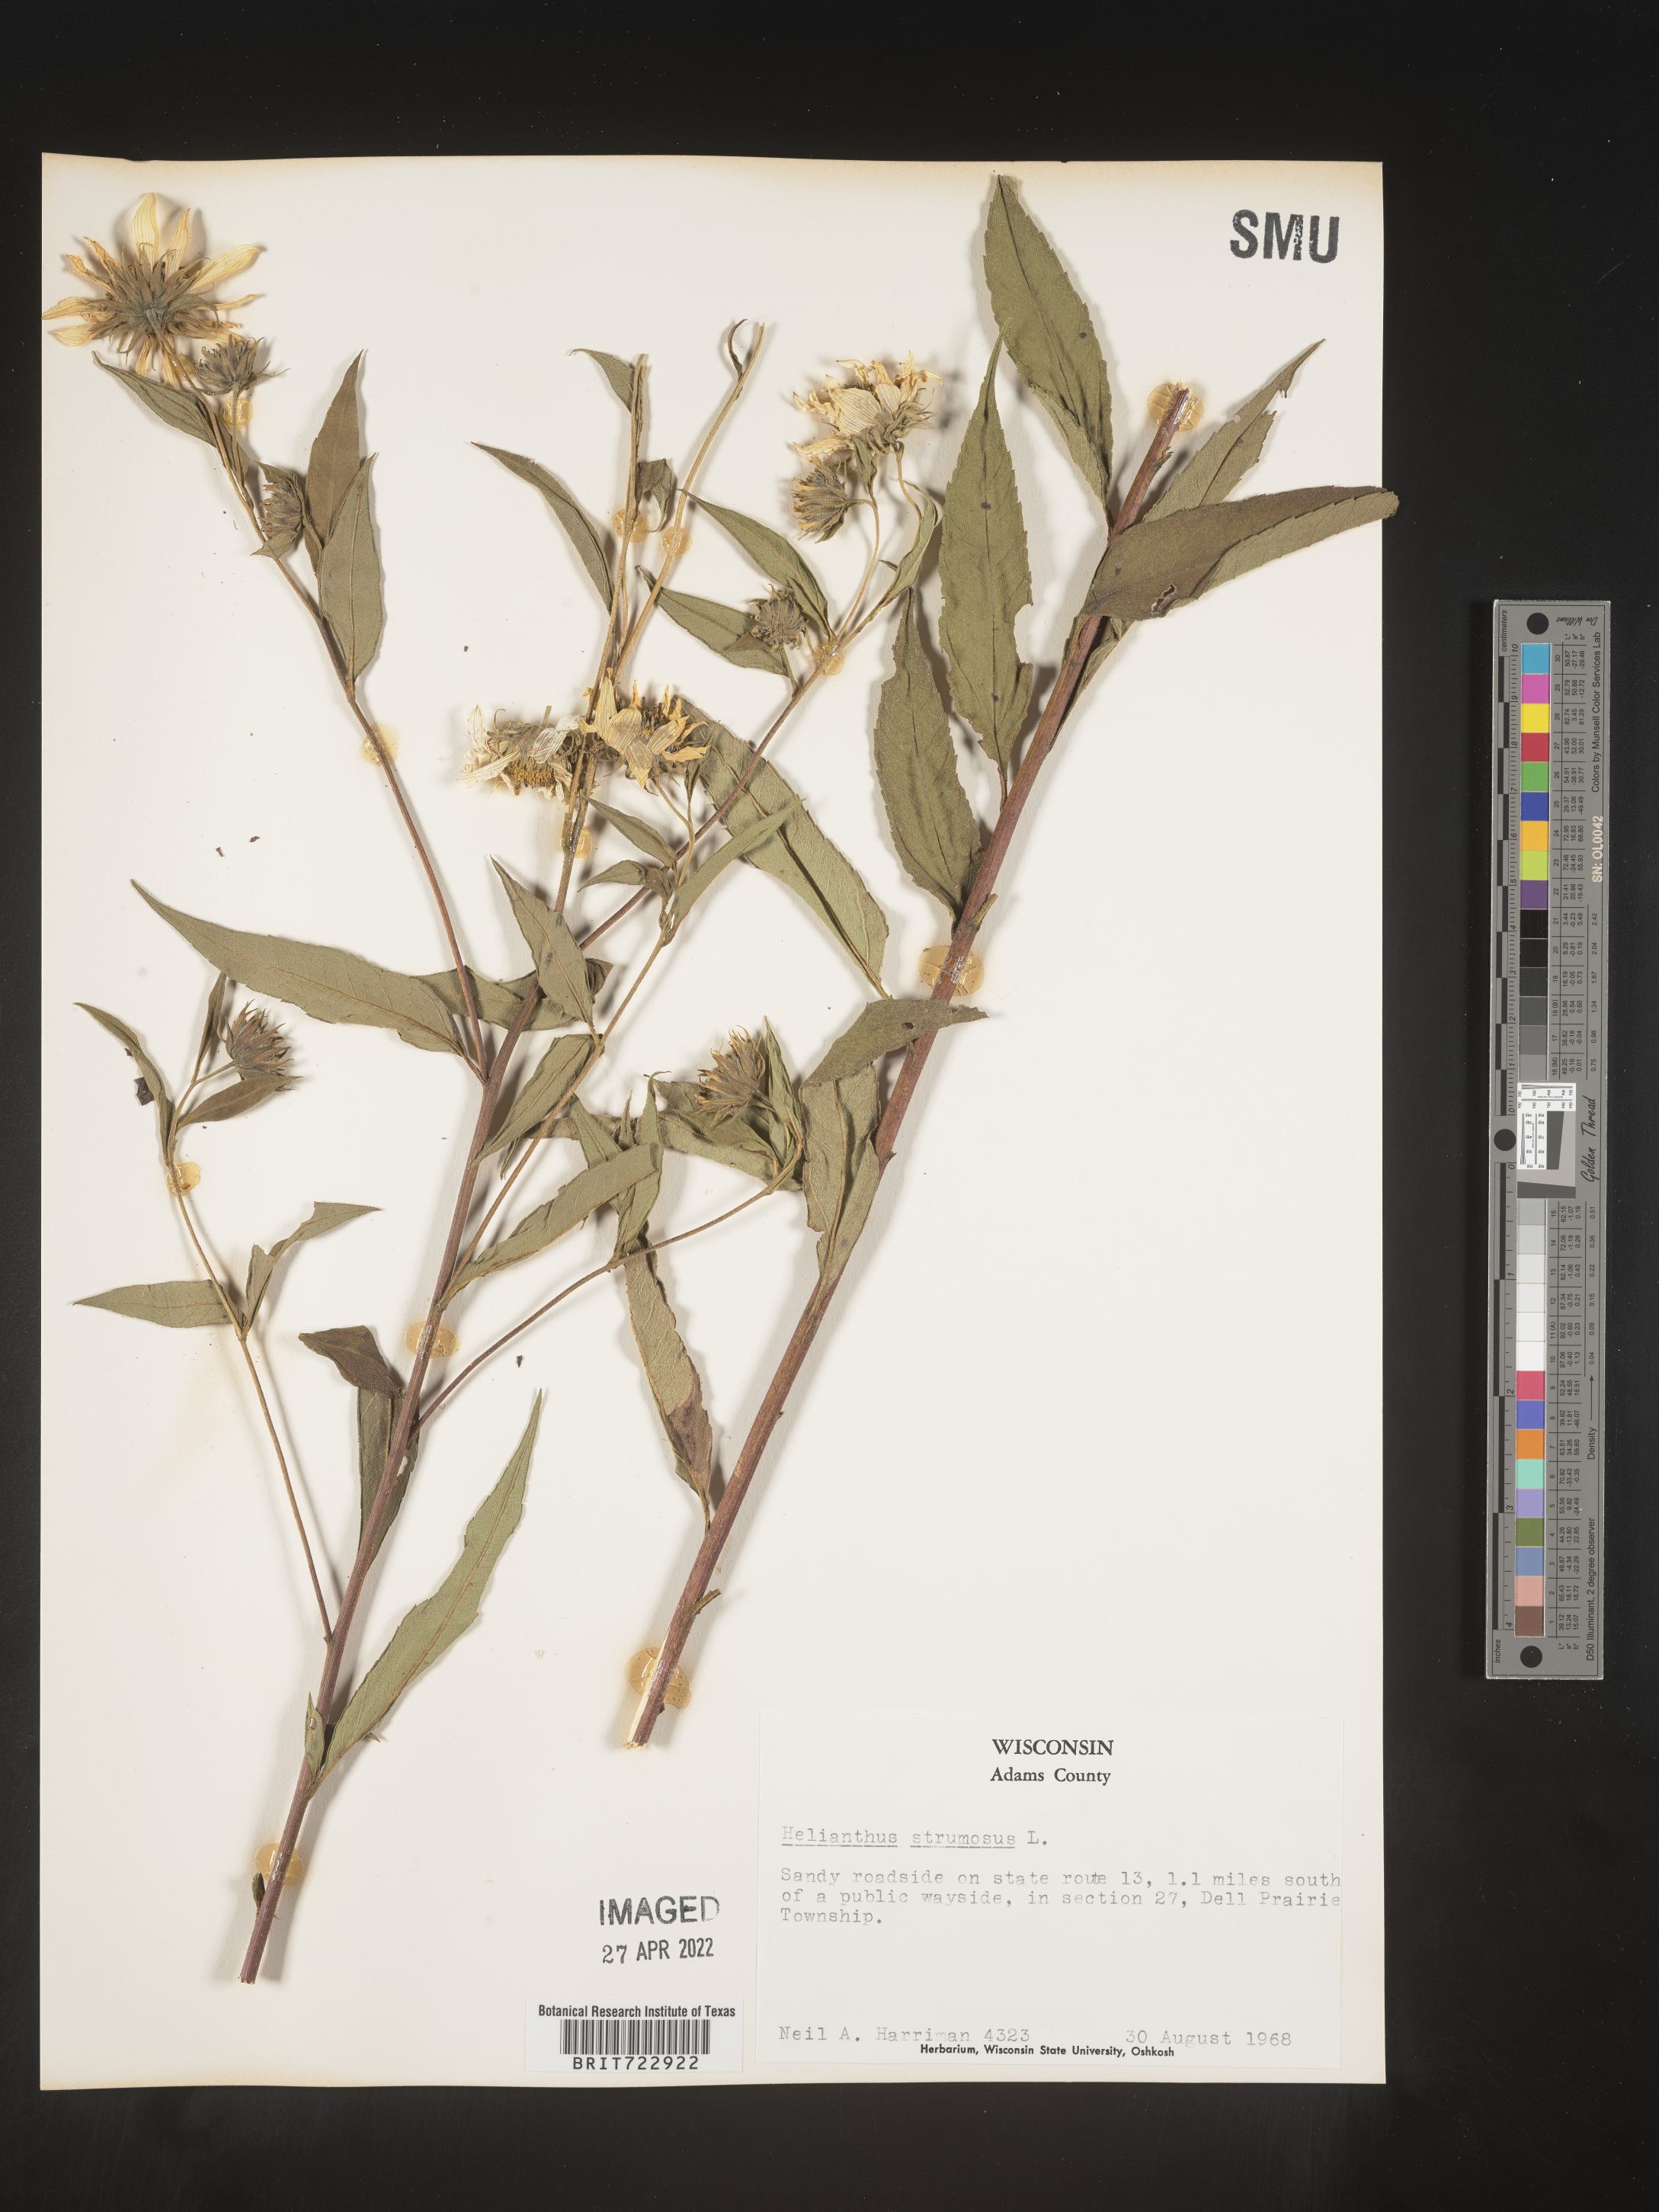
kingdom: Plantae
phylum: Tracheophyta
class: Magnoliopsida
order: Asterales
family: Asteraceae
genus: Helianthus
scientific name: Helianthus strumosus
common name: Pale-leaved sunflower
